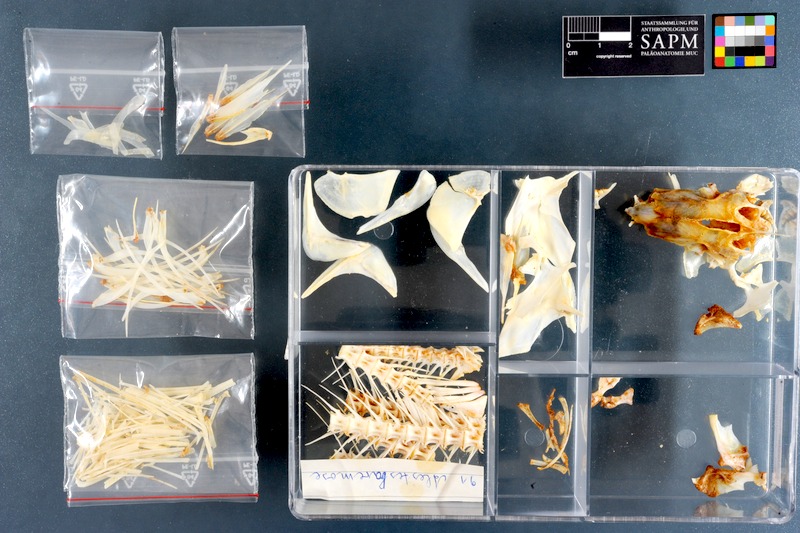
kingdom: Animalia
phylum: Chordata
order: Characiformes
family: Alestidae
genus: Alestes
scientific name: Alestes baremoze
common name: Characin
